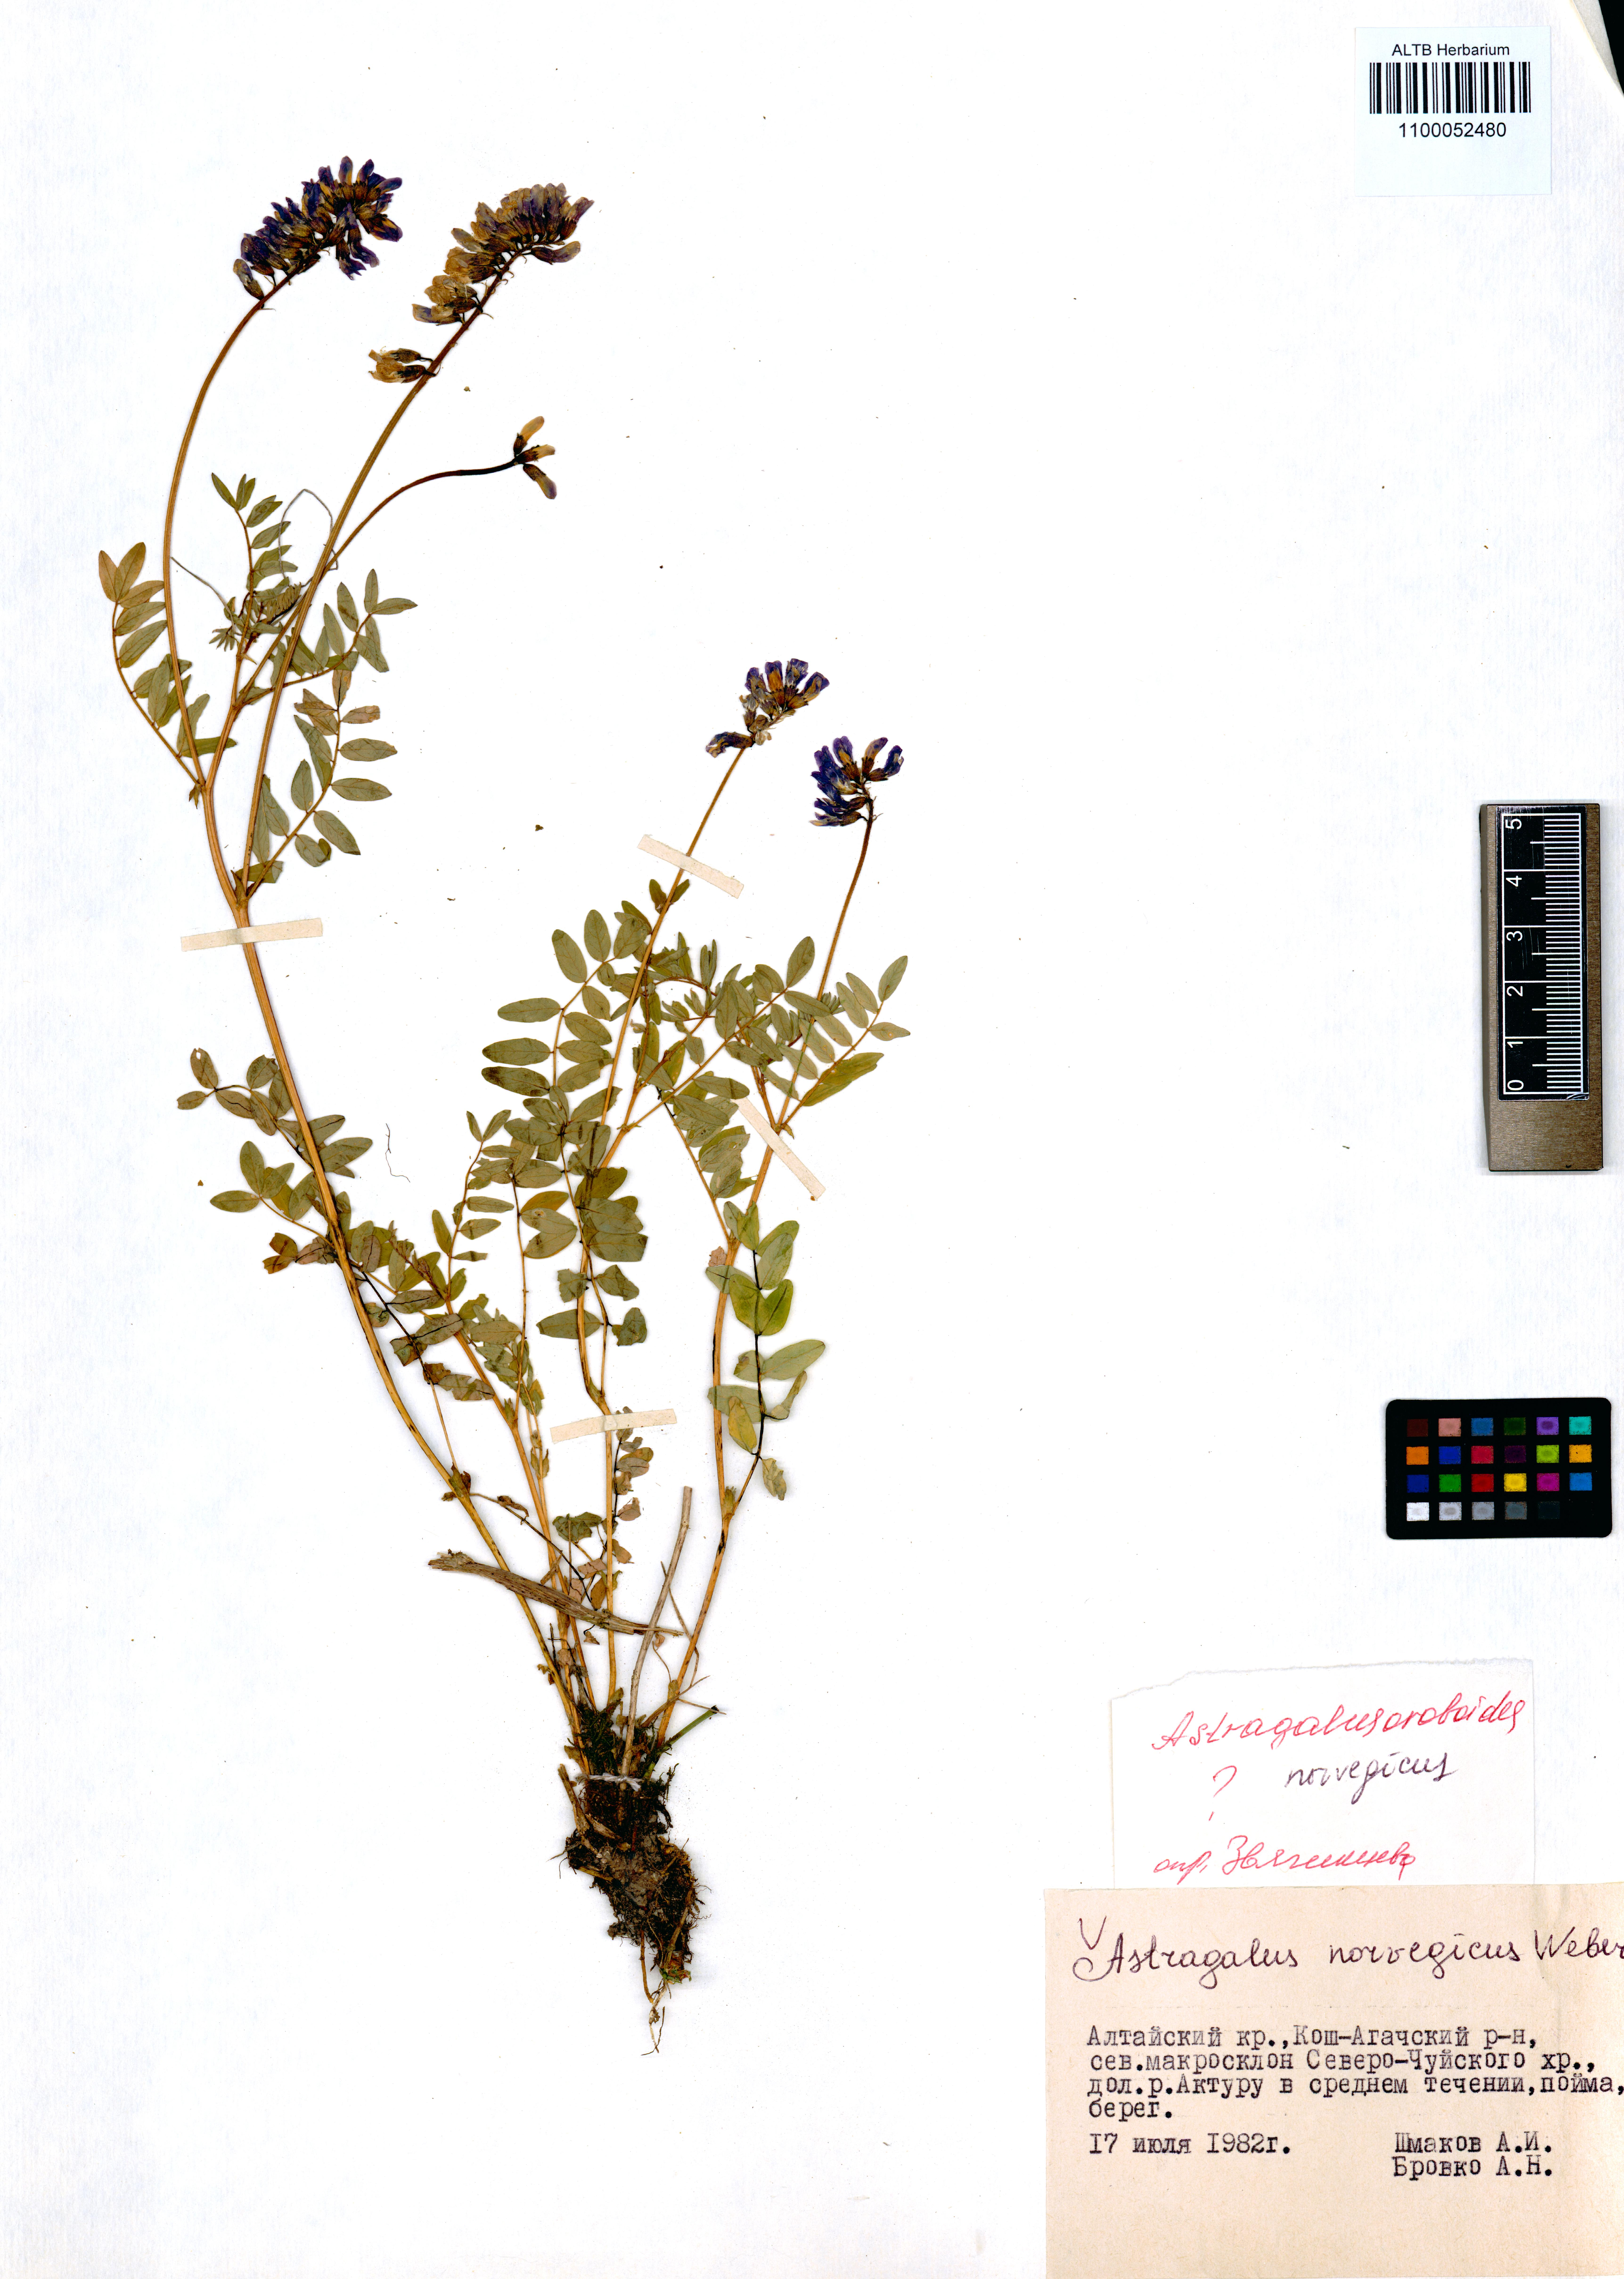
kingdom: Plantae
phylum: Tracheophyta
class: Magnoliopsida
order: Fabales
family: Fabaceae
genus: Astragalus
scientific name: Astragalus norvegicus
